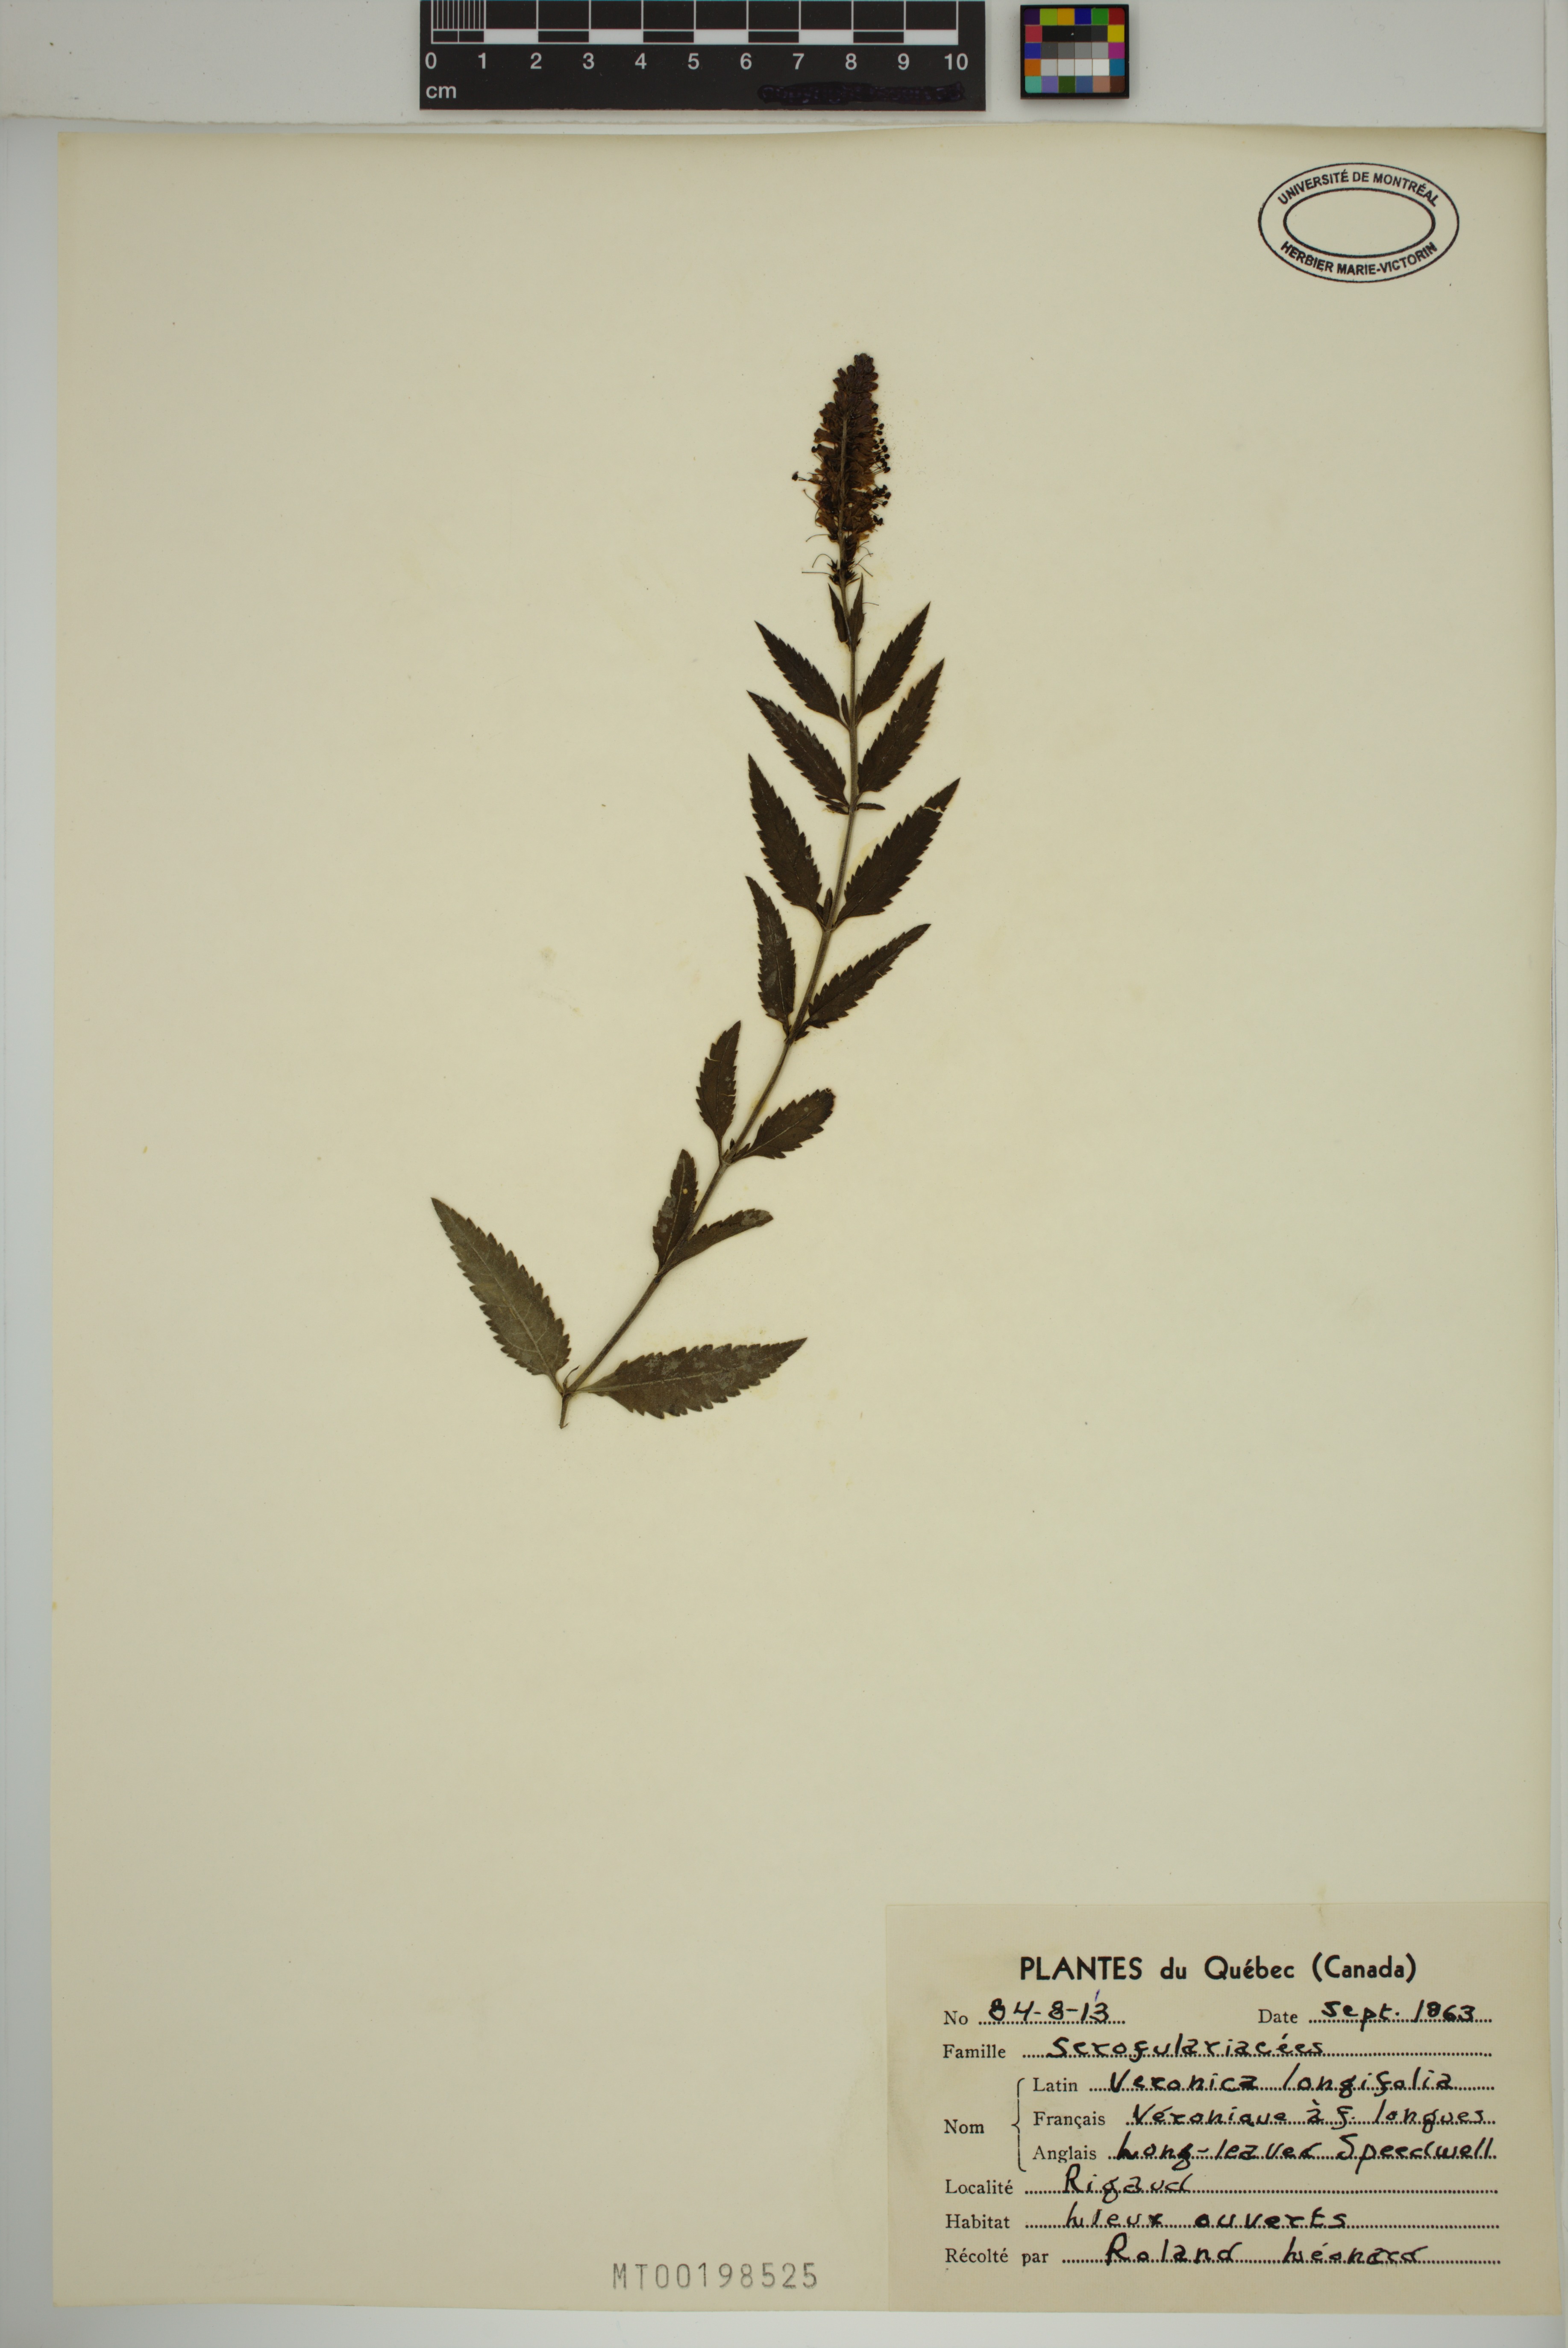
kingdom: Plantae
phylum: Tracheophyta
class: Magnoliopsida
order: Lamiales
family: Plantaginaceae
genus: Veronica
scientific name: Veronica longifolia
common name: Garden speedwell
